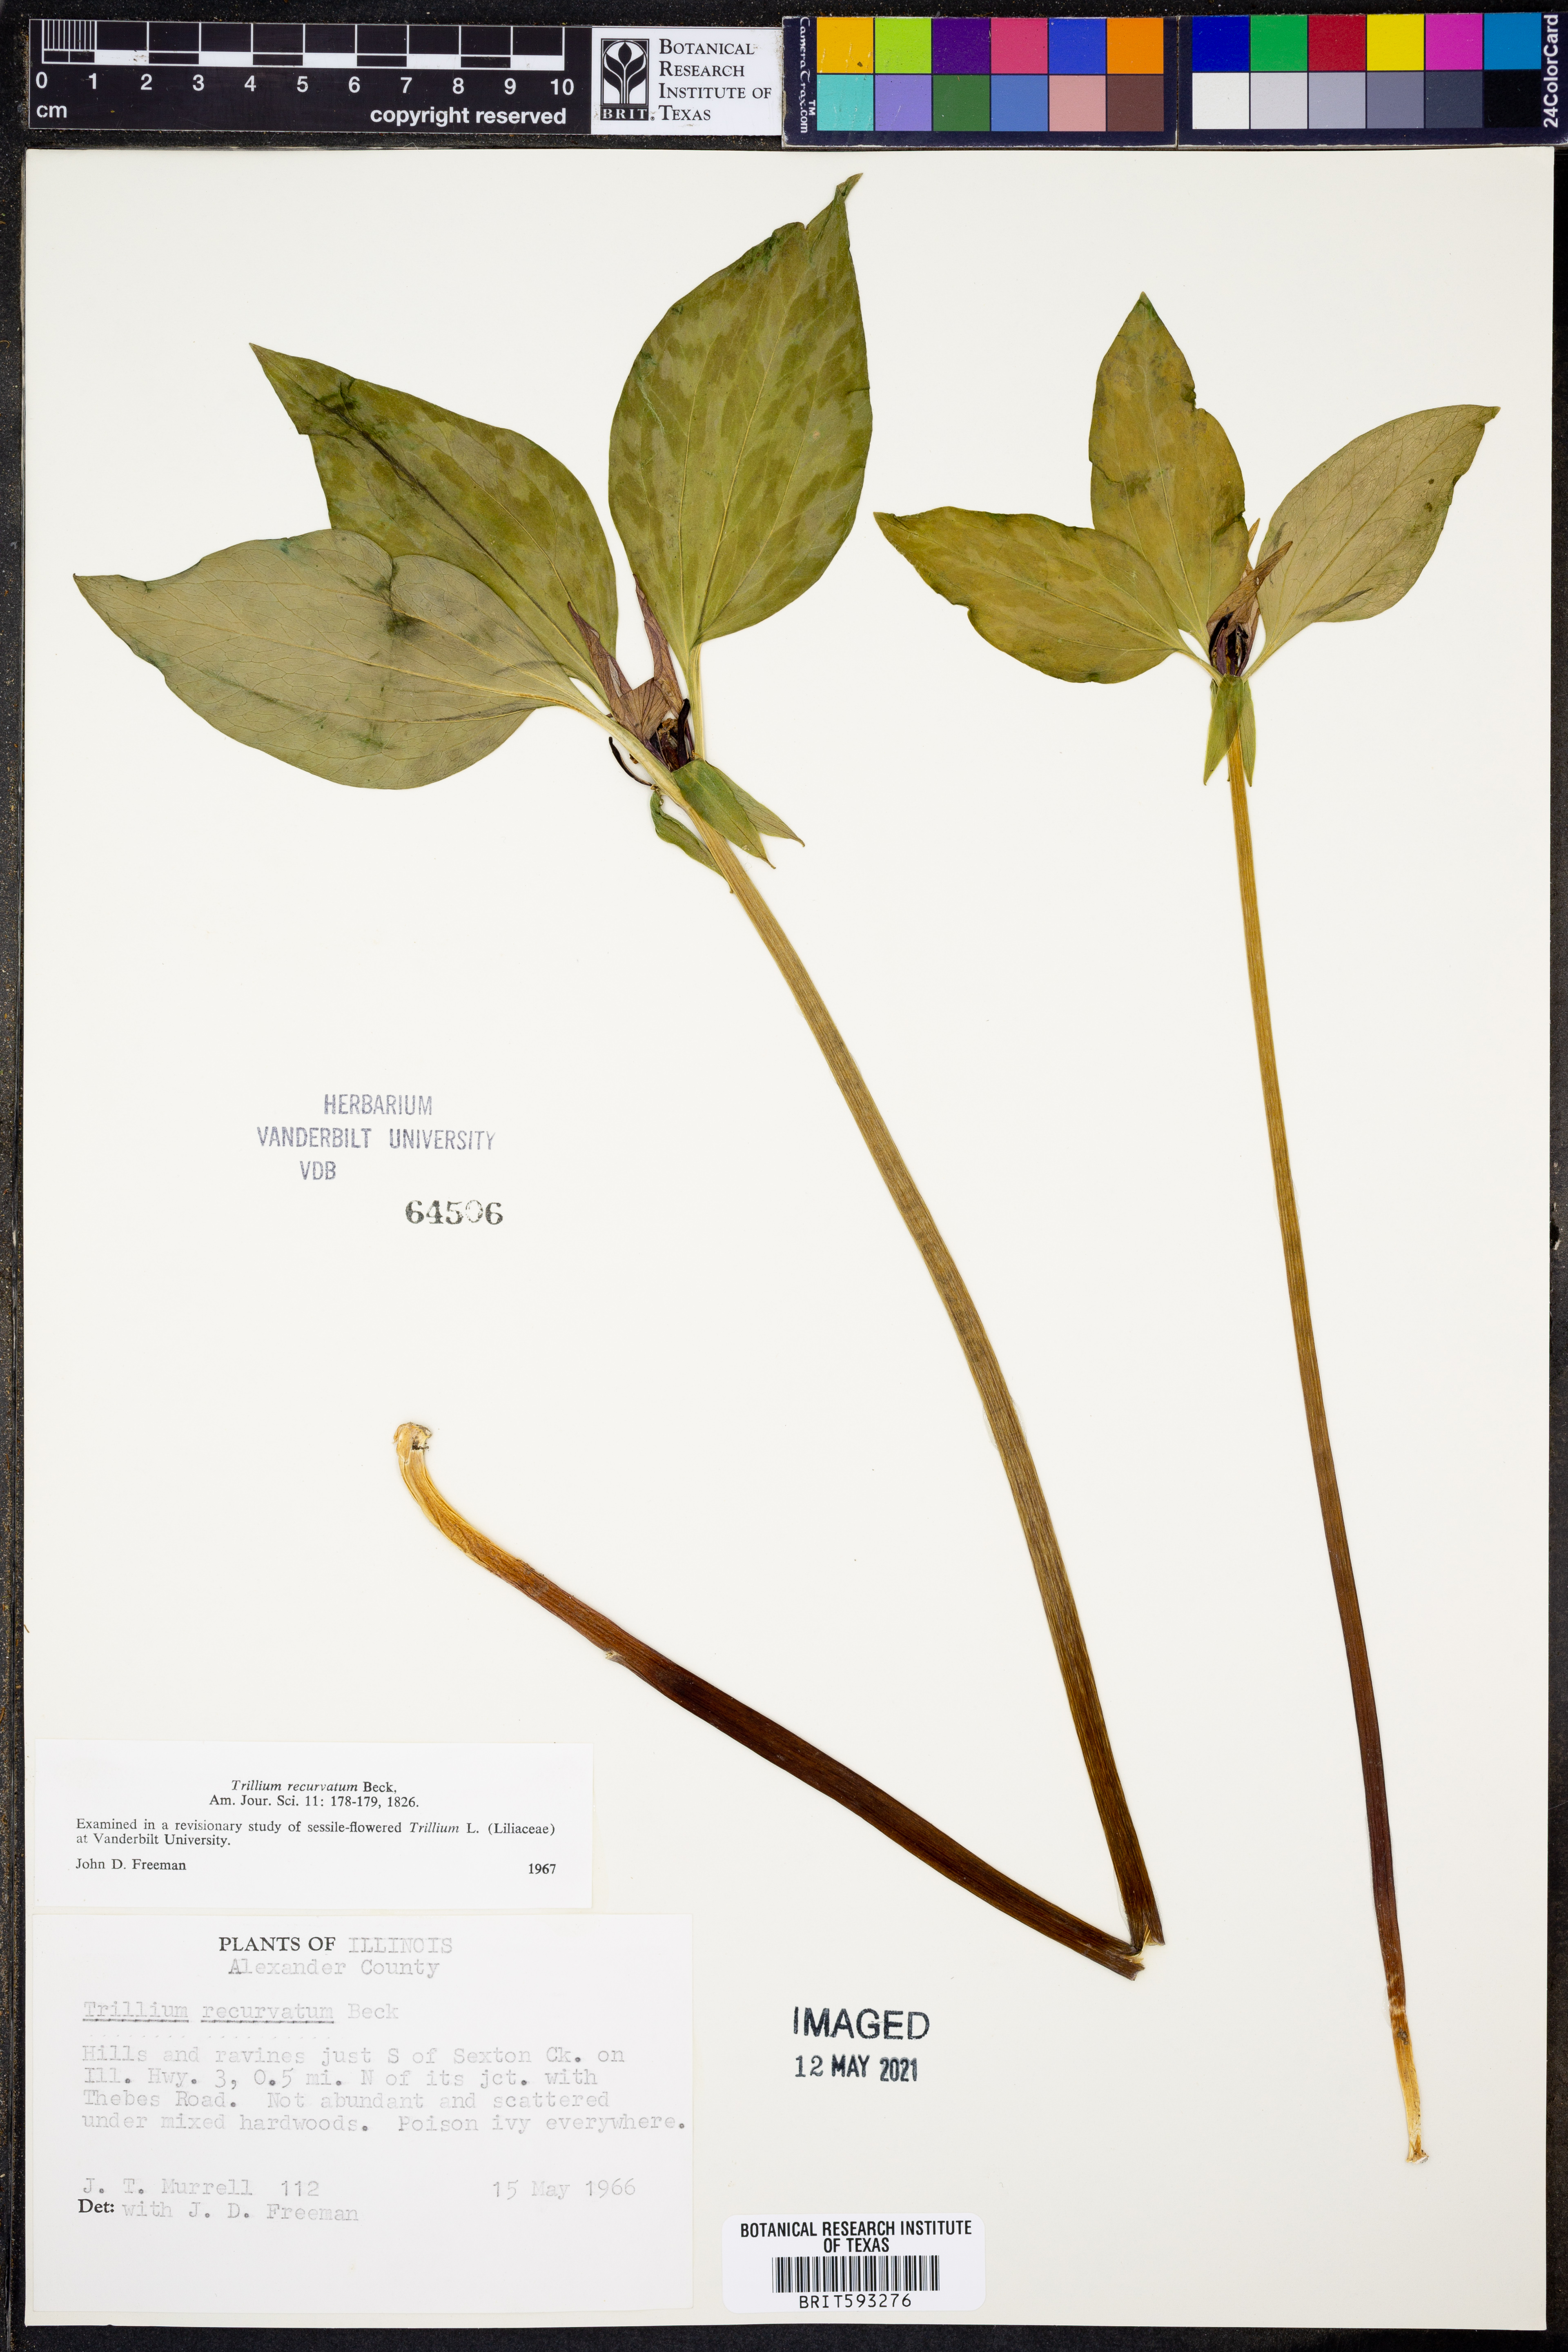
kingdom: Plantae
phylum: Tracheophyta
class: Liliopsida
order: Liliales
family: Melanthiaceae
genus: Trillium
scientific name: Trillium recurvatum
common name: Bloody butcher
